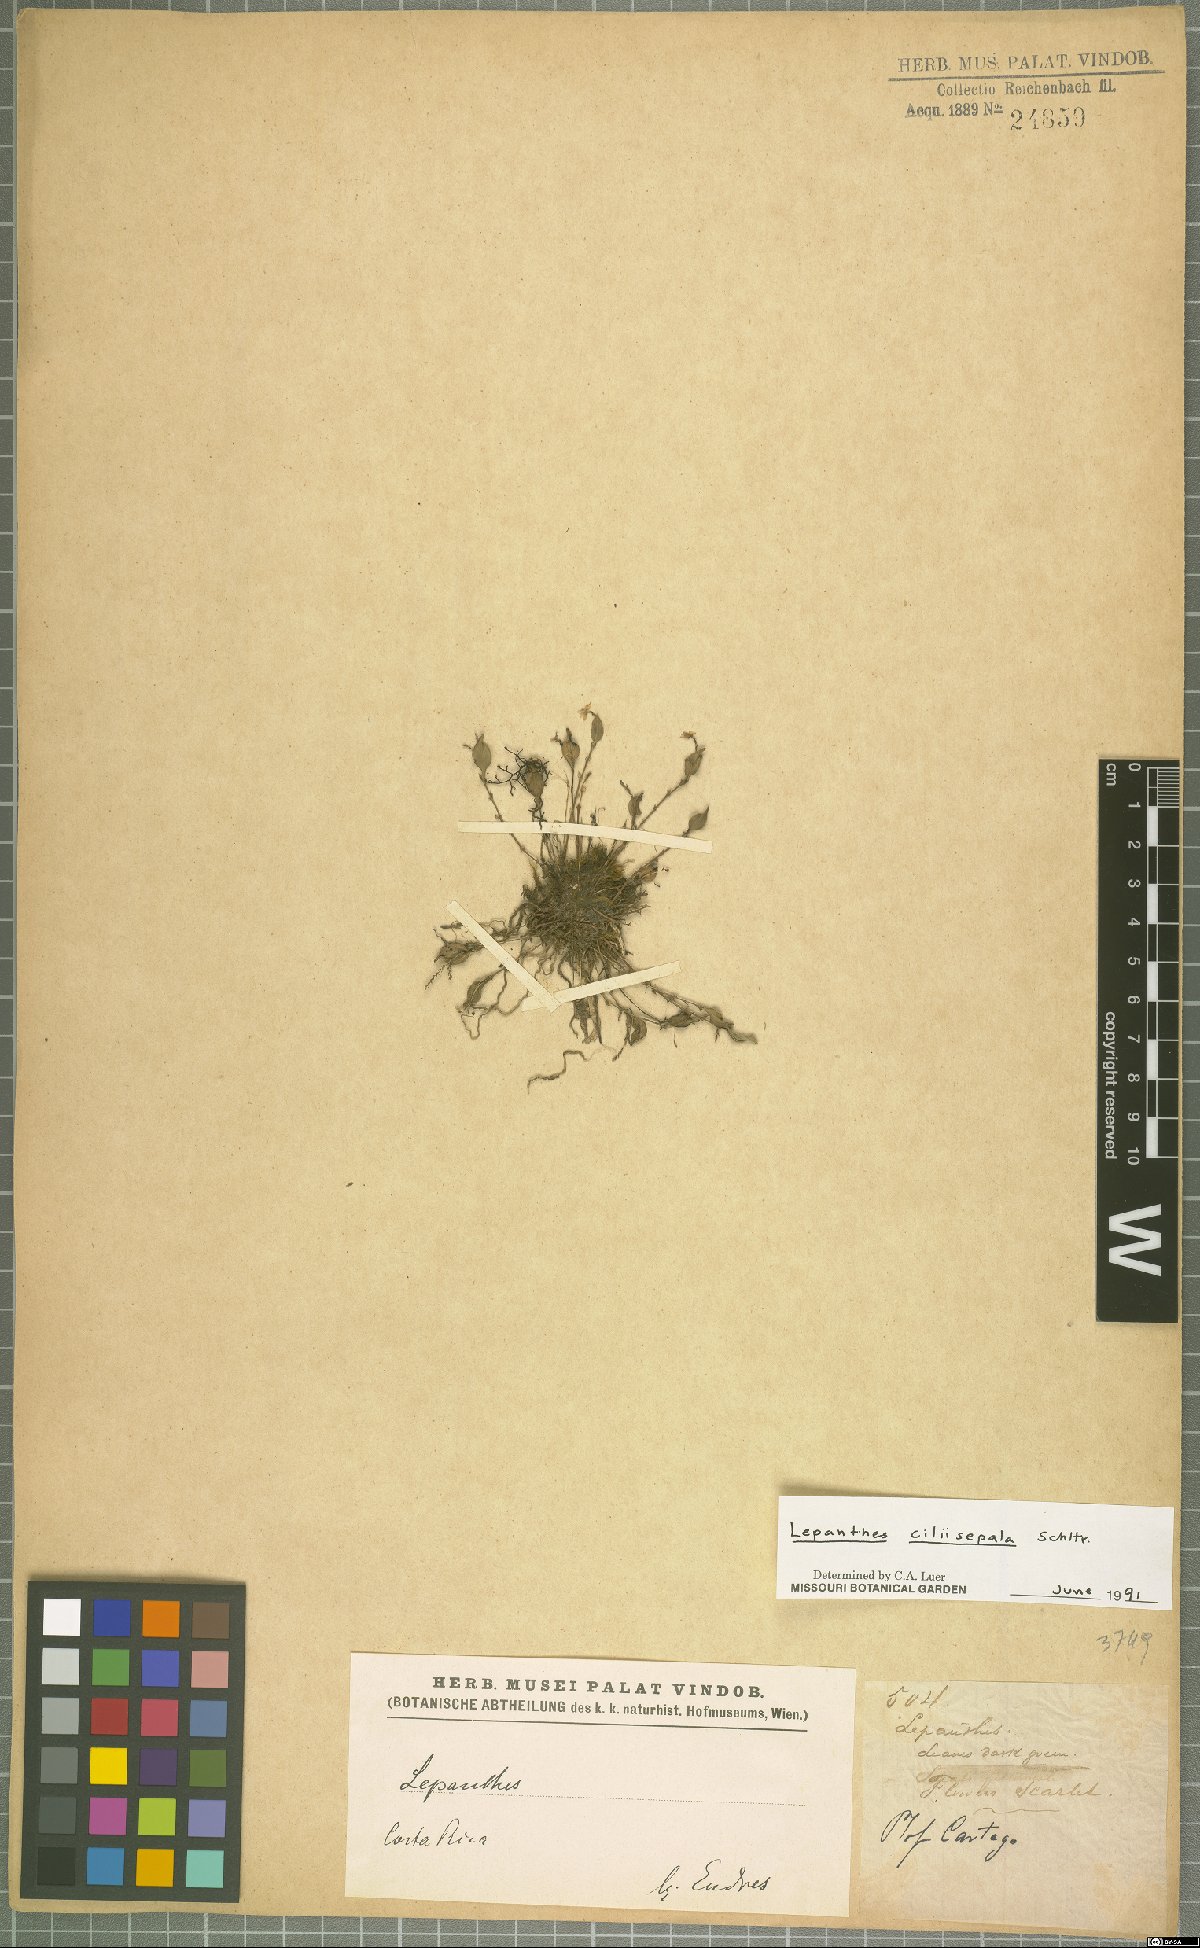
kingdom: Plantae
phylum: Tracheophyta
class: Liliopsida
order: Asparagales
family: Orchidaceae
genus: Lepanthes
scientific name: Lepanthes ciliisepala
